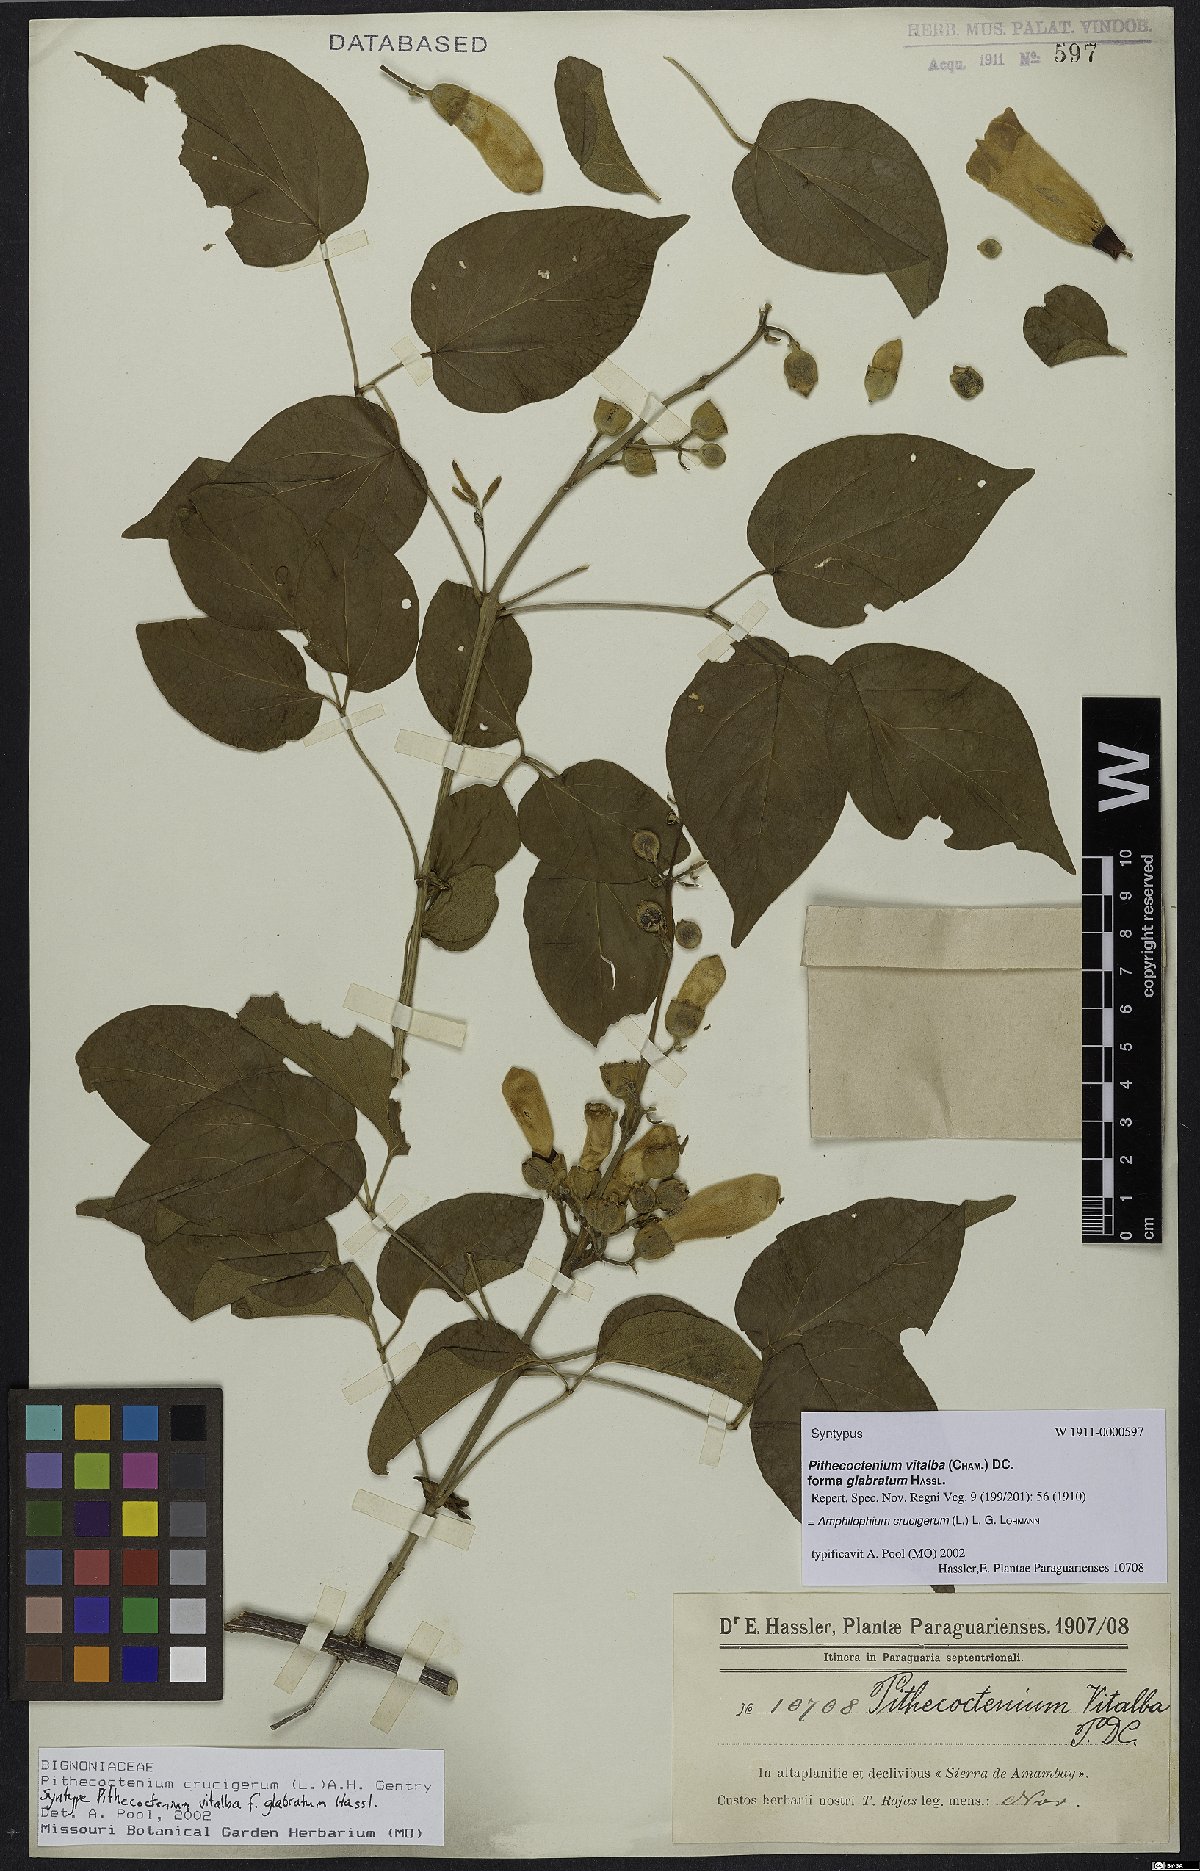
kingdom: Plantae
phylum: Tracheophyta
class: Magnoliopsida
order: Lamiales
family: Bignoniaceae
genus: Amphilophium
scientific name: Amphilophium crucigerum
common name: Monkey comb
